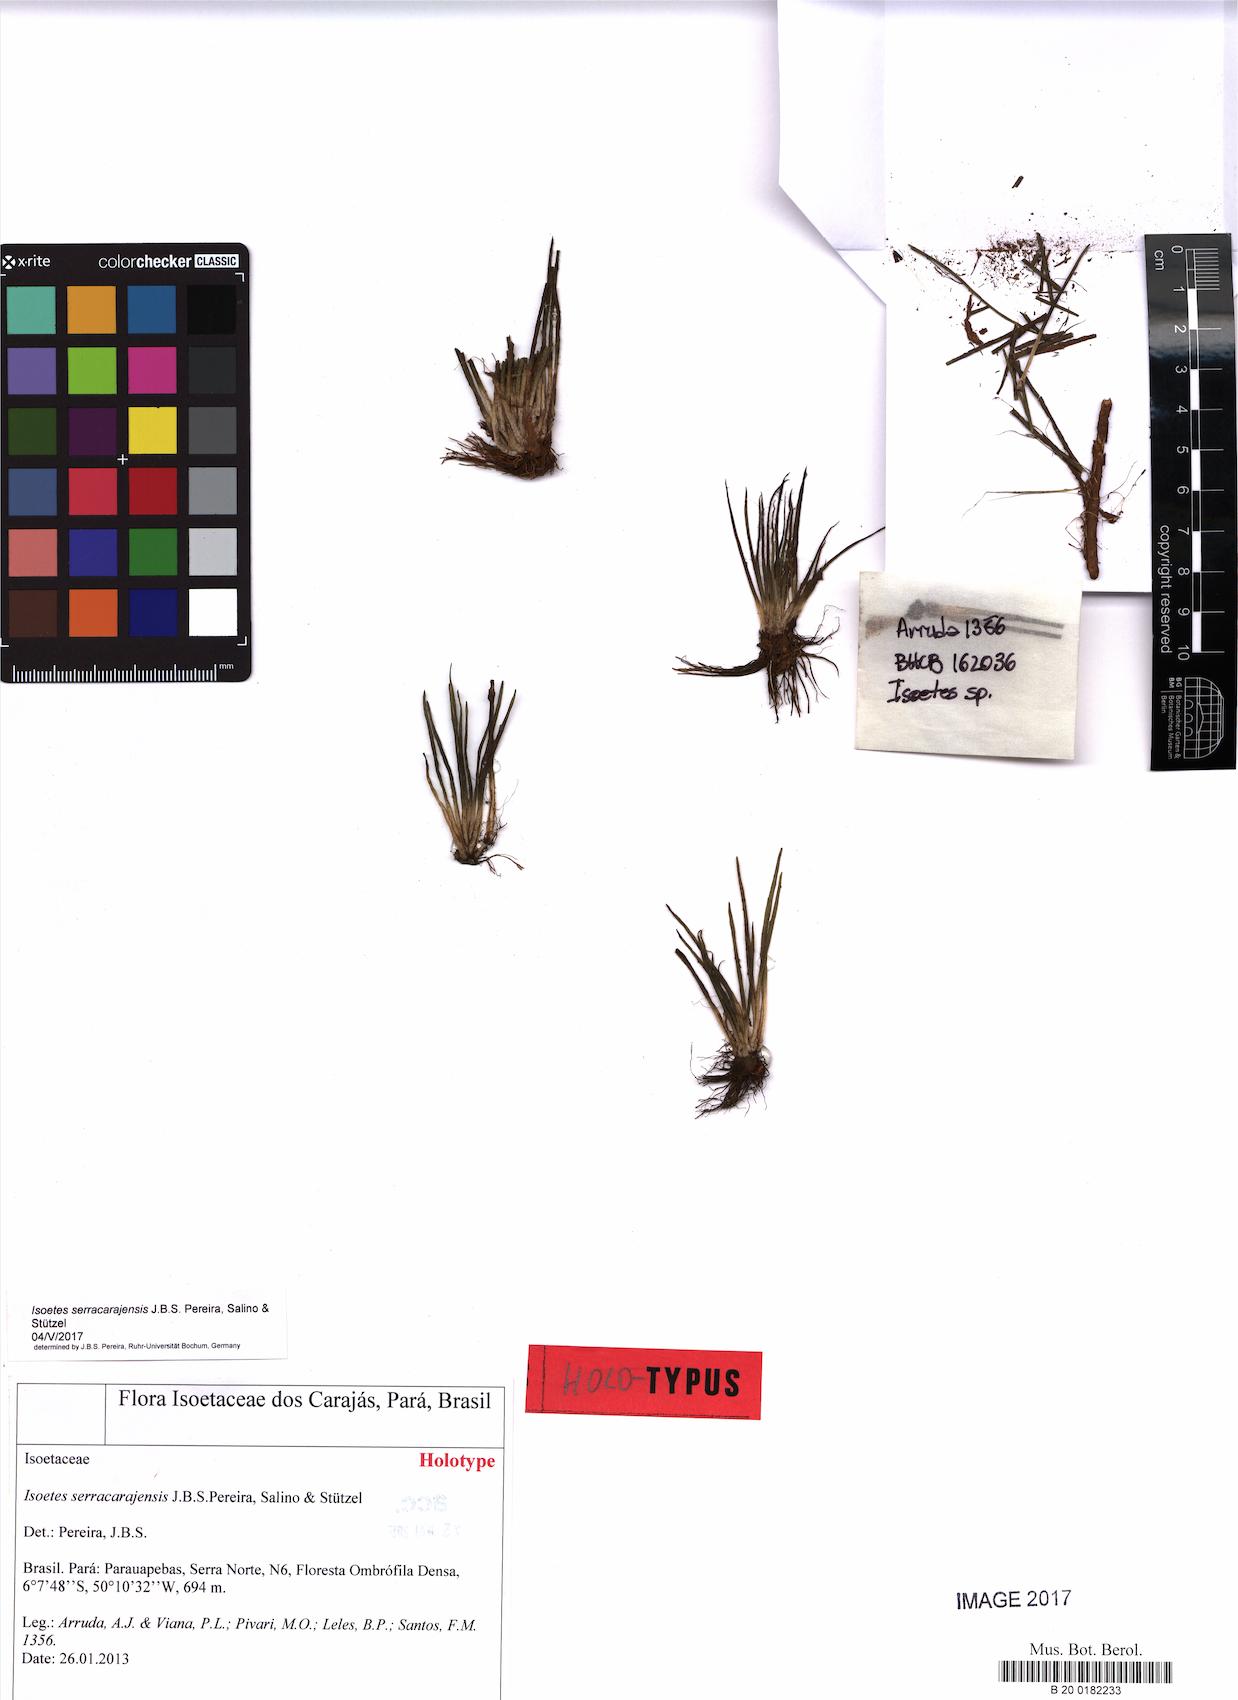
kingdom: Plantae
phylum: Tracheophyta
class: Lycopodiopsida
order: Isoetales
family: Isoetaceae
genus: Isoetes
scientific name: Isoetes serracarajensis
